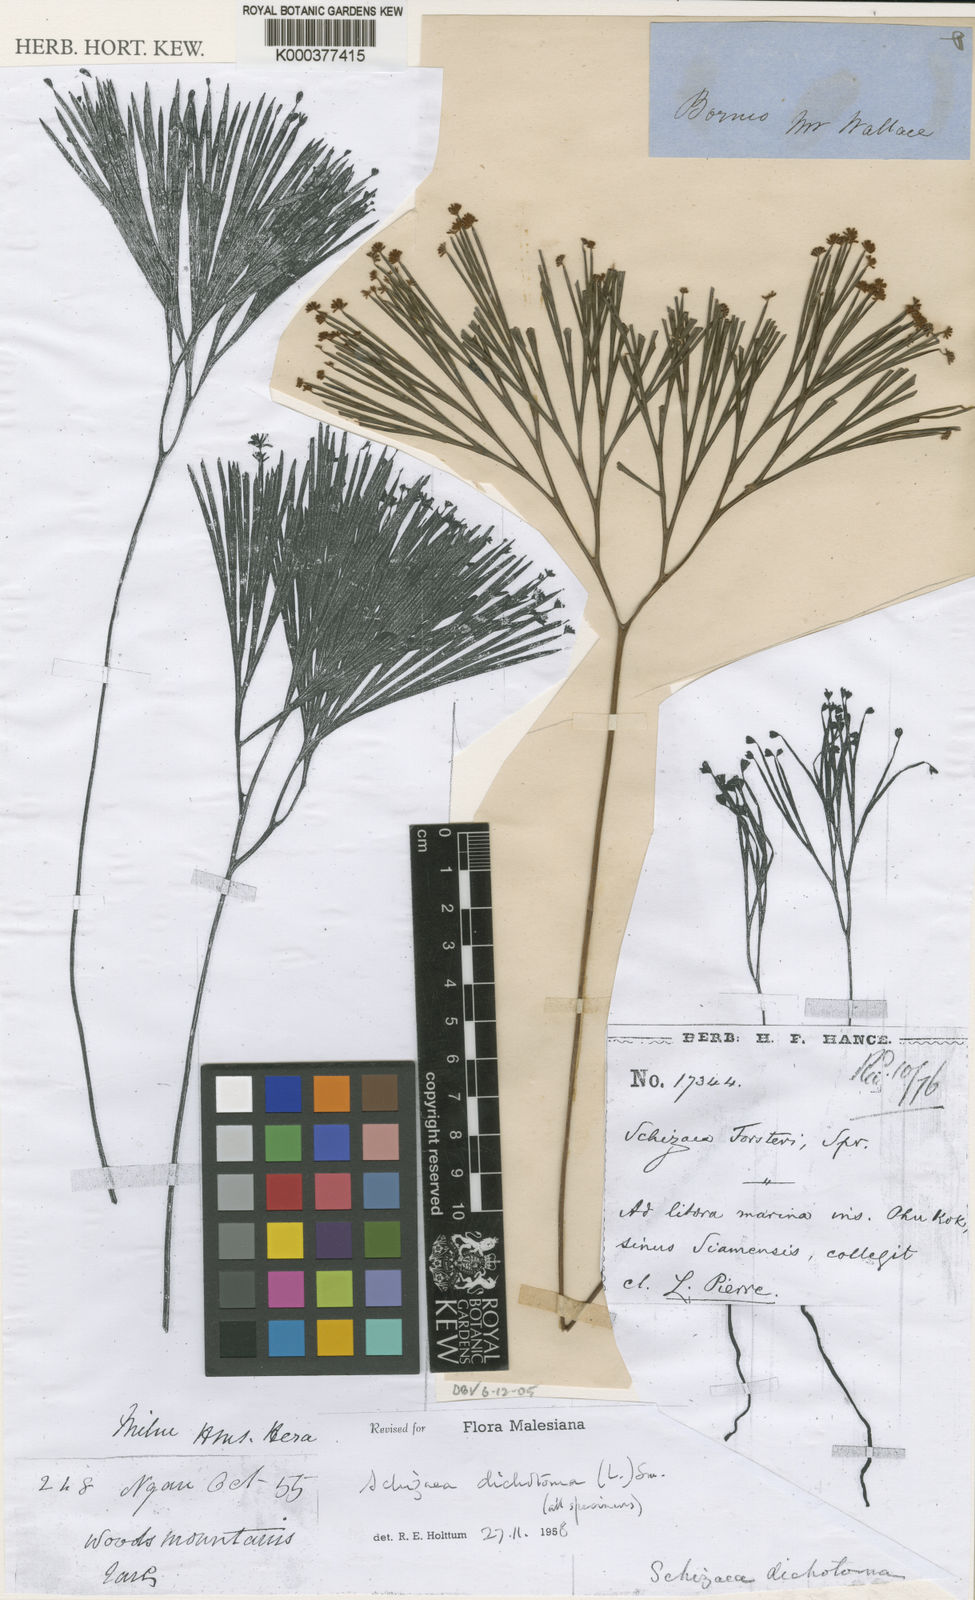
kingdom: Plantae
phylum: Tracheophyta
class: Polypodiopsida
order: Schizaeales
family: Schizaeaceae
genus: Schizaea
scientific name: Schizaea
